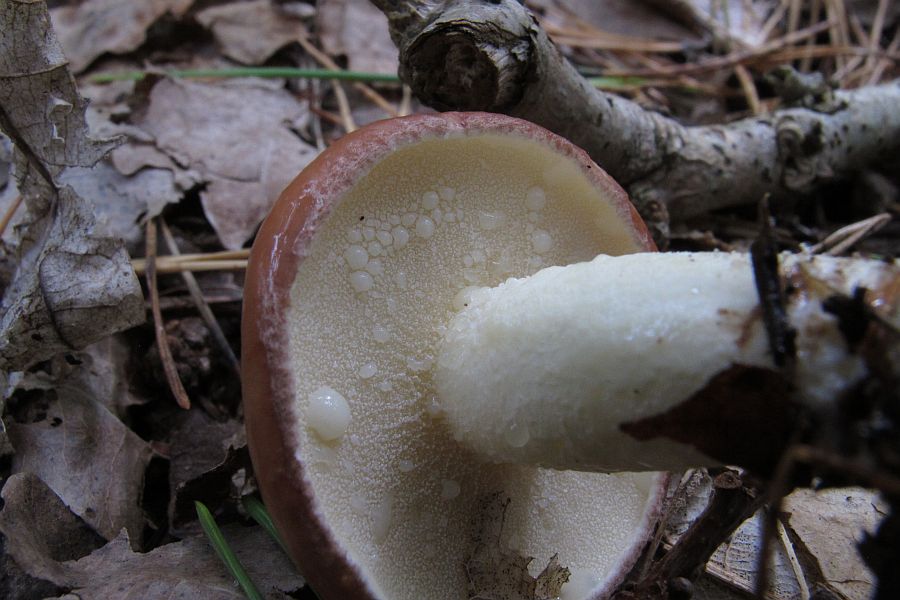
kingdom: Fungi
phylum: Basidiomycota
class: Agaricomycetes
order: Boletales
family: Suillaceae
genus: Suillus
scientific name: Suillus granulatus
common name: kornet slimrørhat
